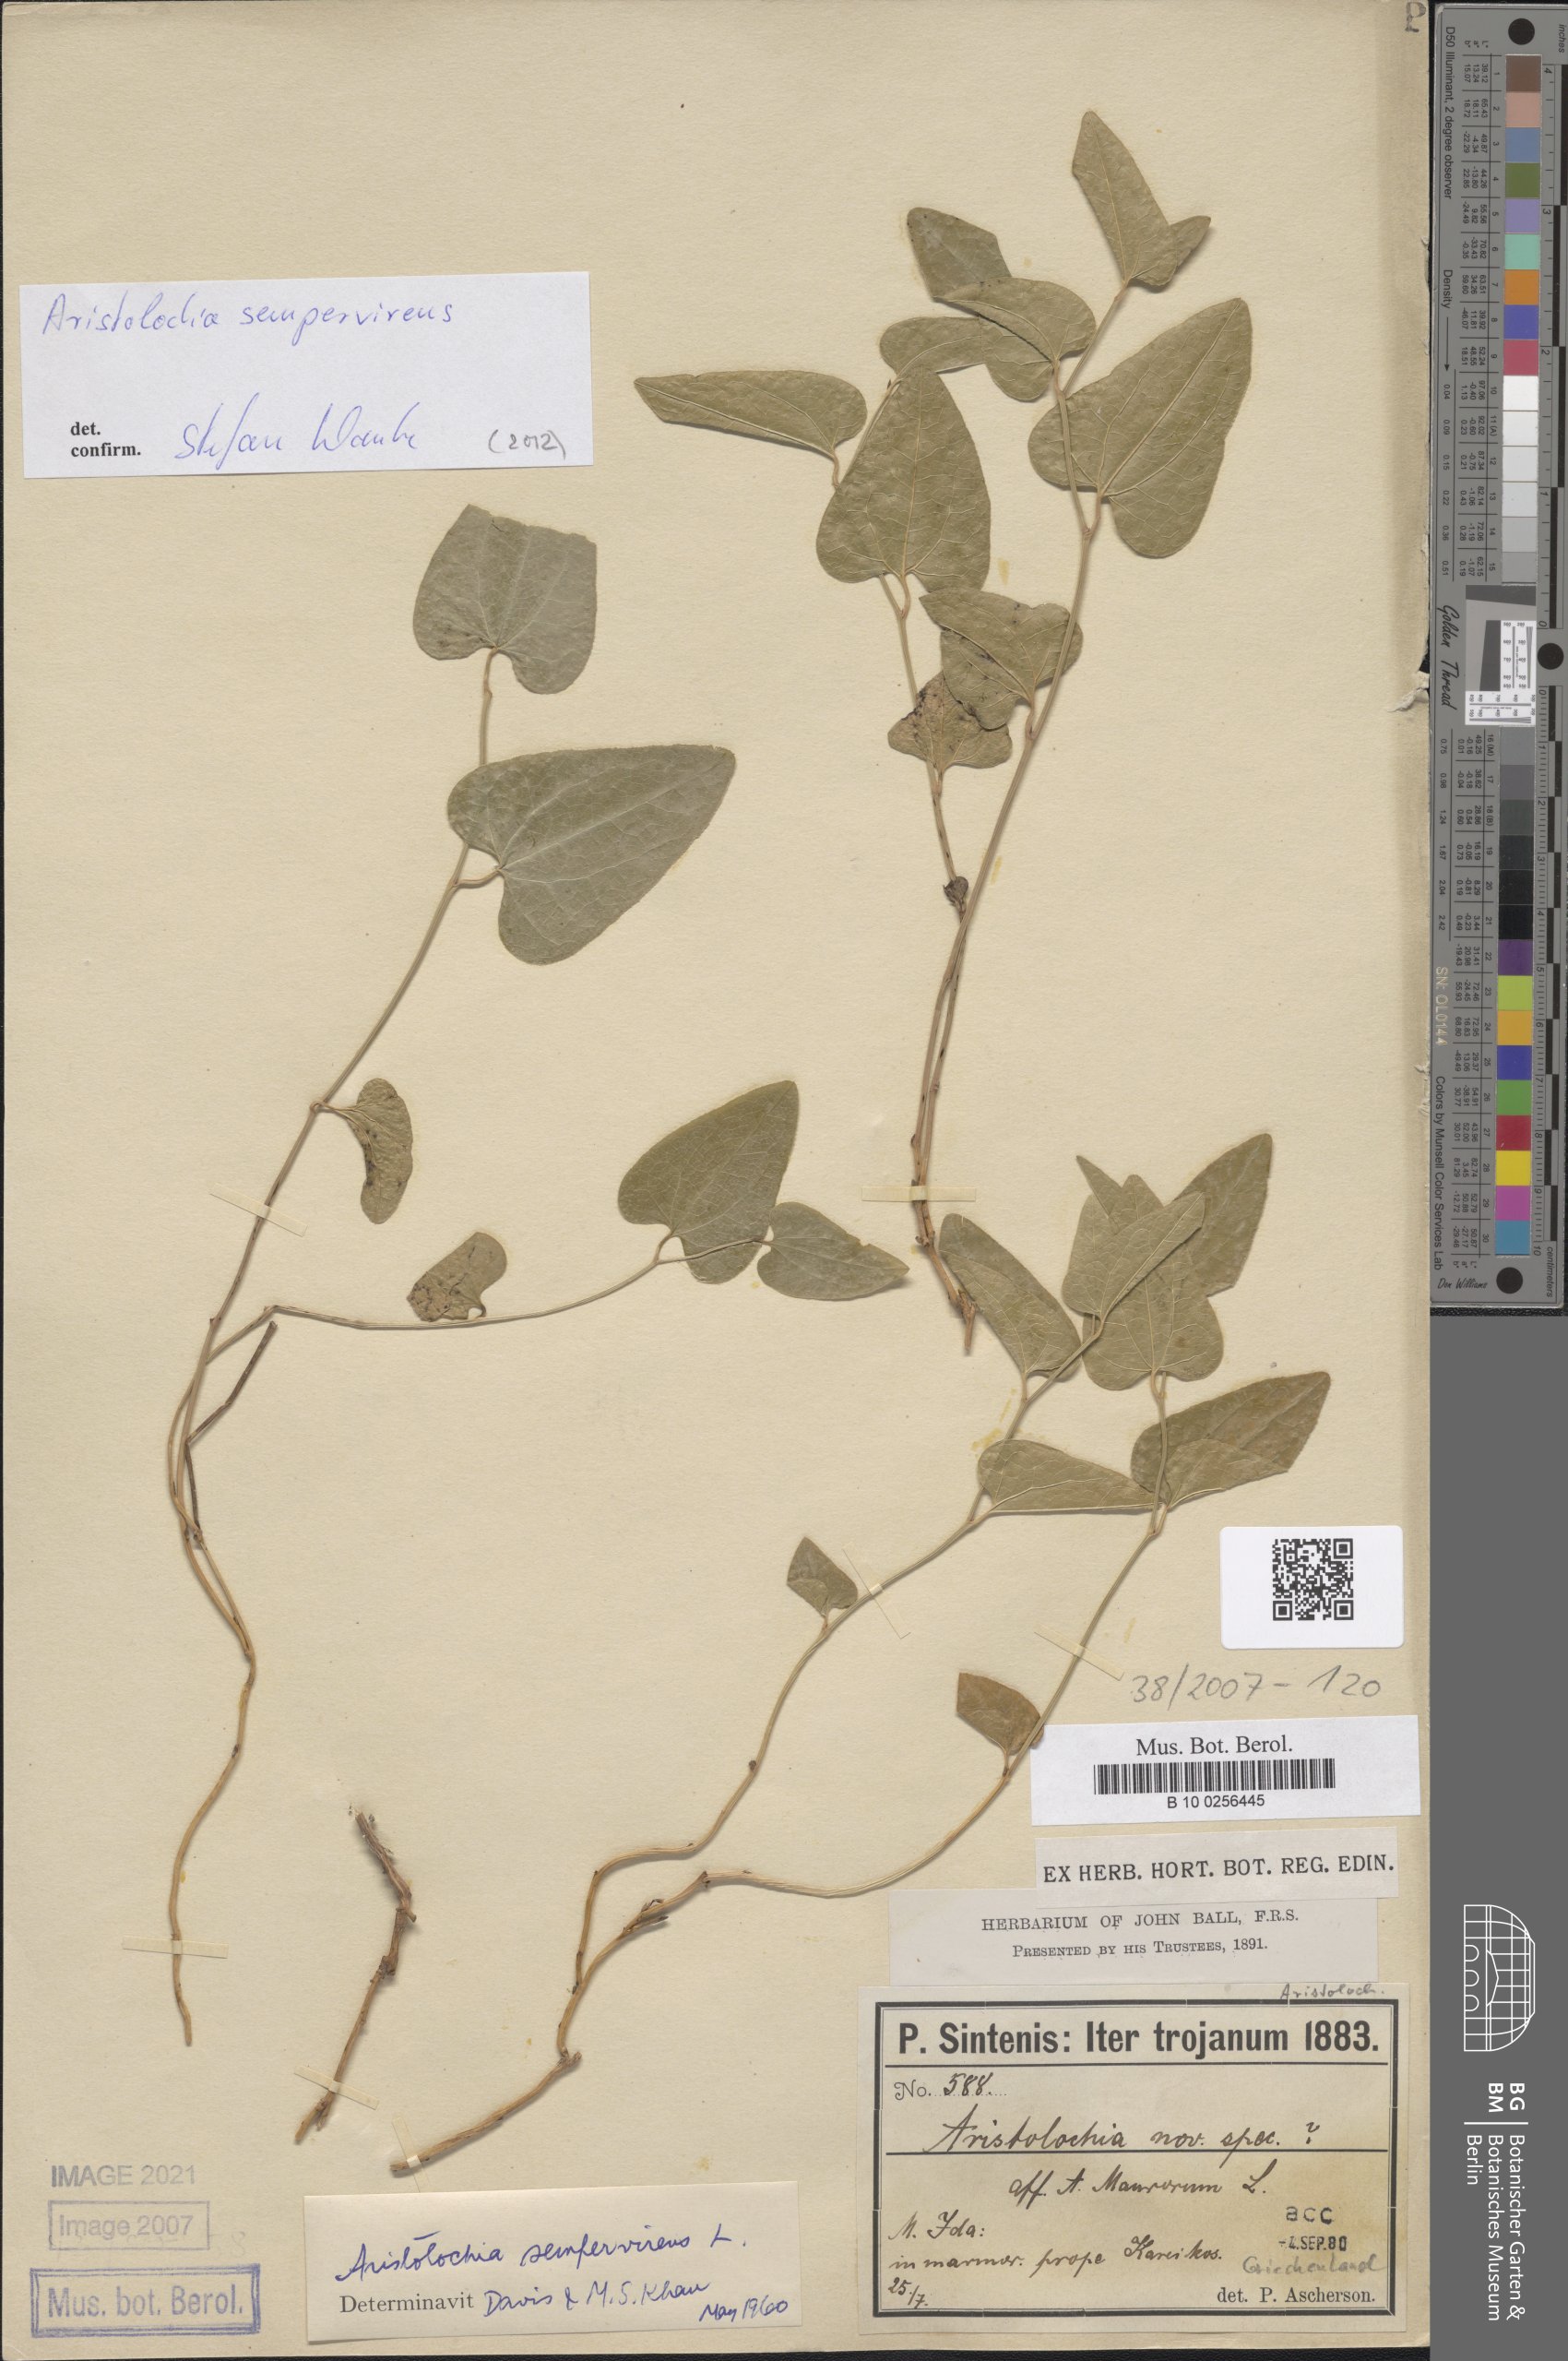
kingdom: Plantae
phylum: Tracheophyta
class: Magnoliopsida
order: Piperales
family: Aristolochiaceae
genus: Aristolochia
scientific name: Aristolochia sempervirens
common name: Long birthwort
